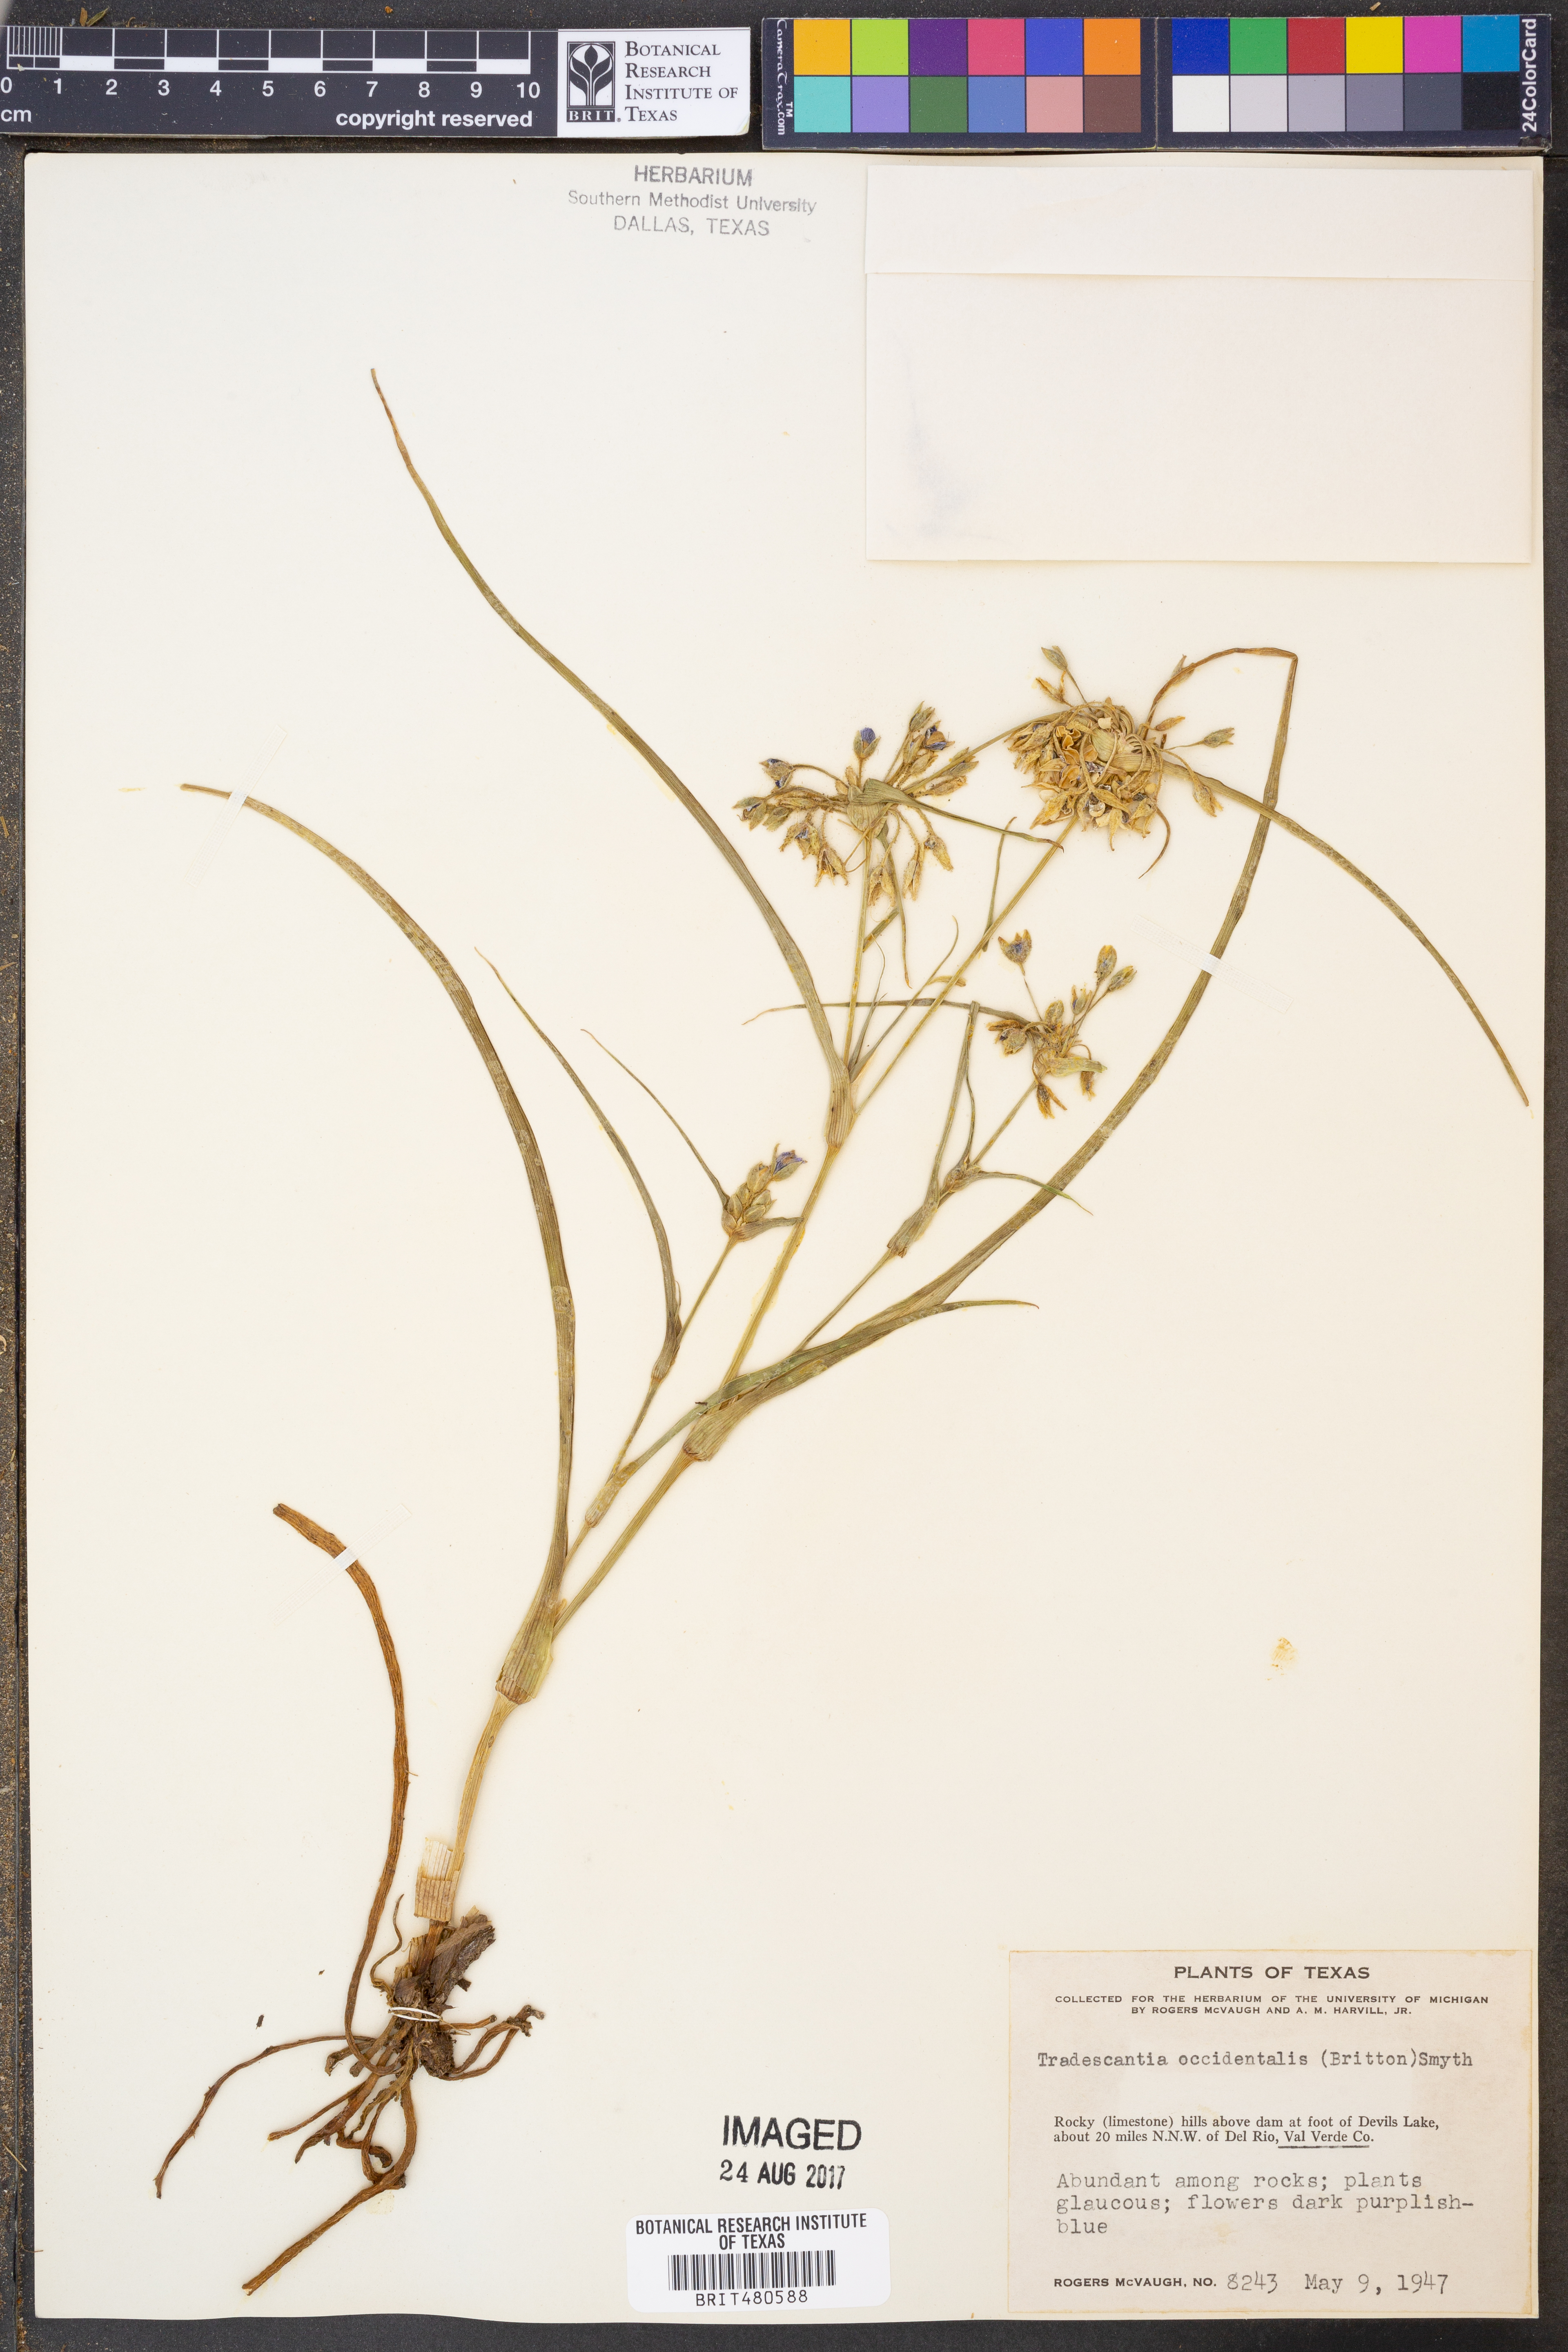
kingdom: Plantae
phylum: Tracheophyta
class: Liliopsida
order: Commelinales
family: Commelinaceae
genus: Tradescantia
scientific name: Tradescantia occidentalis
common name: Prairie spiderwort
